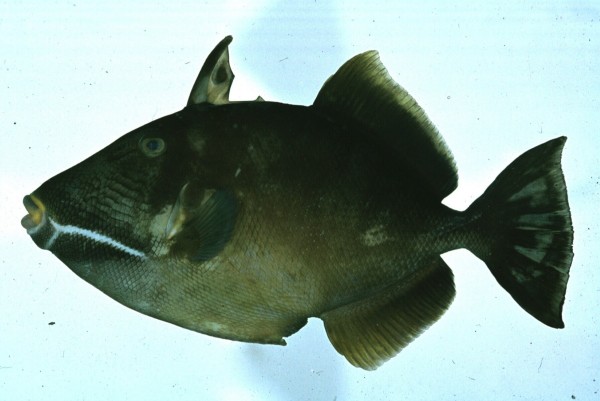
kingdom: Animalia
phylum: Chordata
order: Tetraodontiformes
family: Balistidae
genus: Sufflamen
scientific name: Sufflamen fraenatum
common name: Bridle triggerfish
